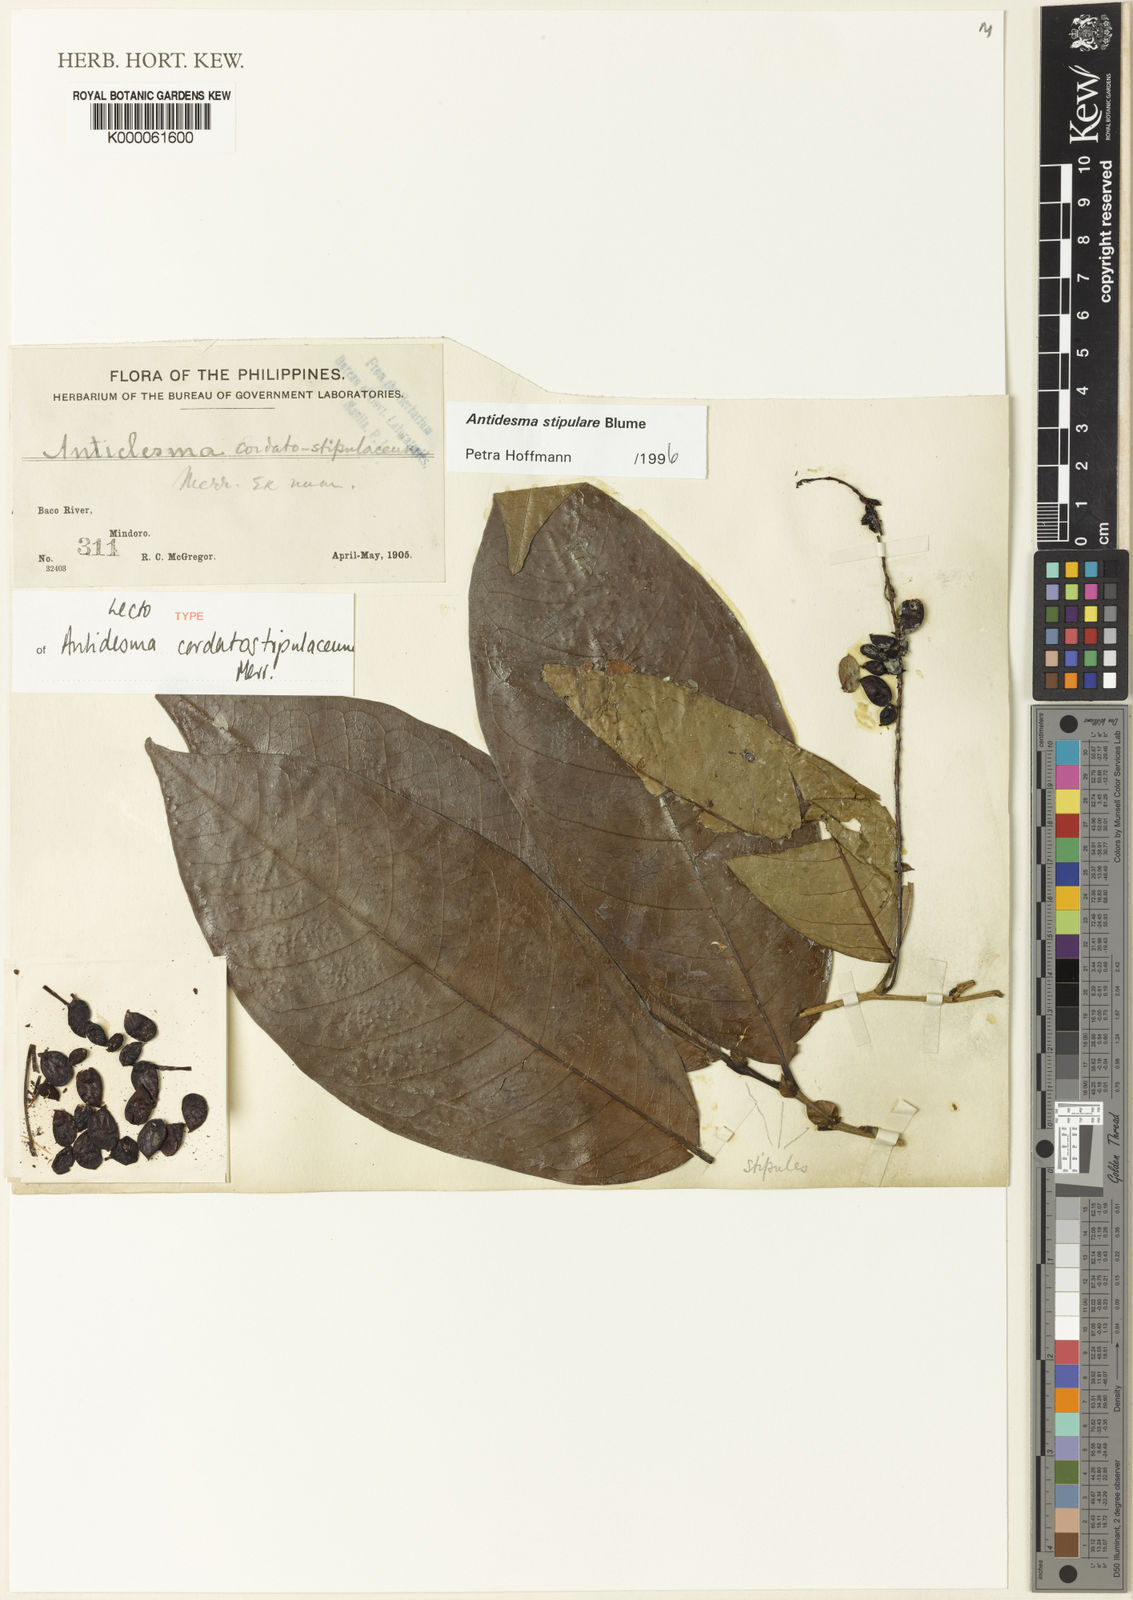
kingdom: Plantae
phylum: Tracheophyta
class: Magnoliopsida
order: Malpighiales
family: Phyllanthaceae
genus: Antidesma
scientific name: Antidesma stipulare
